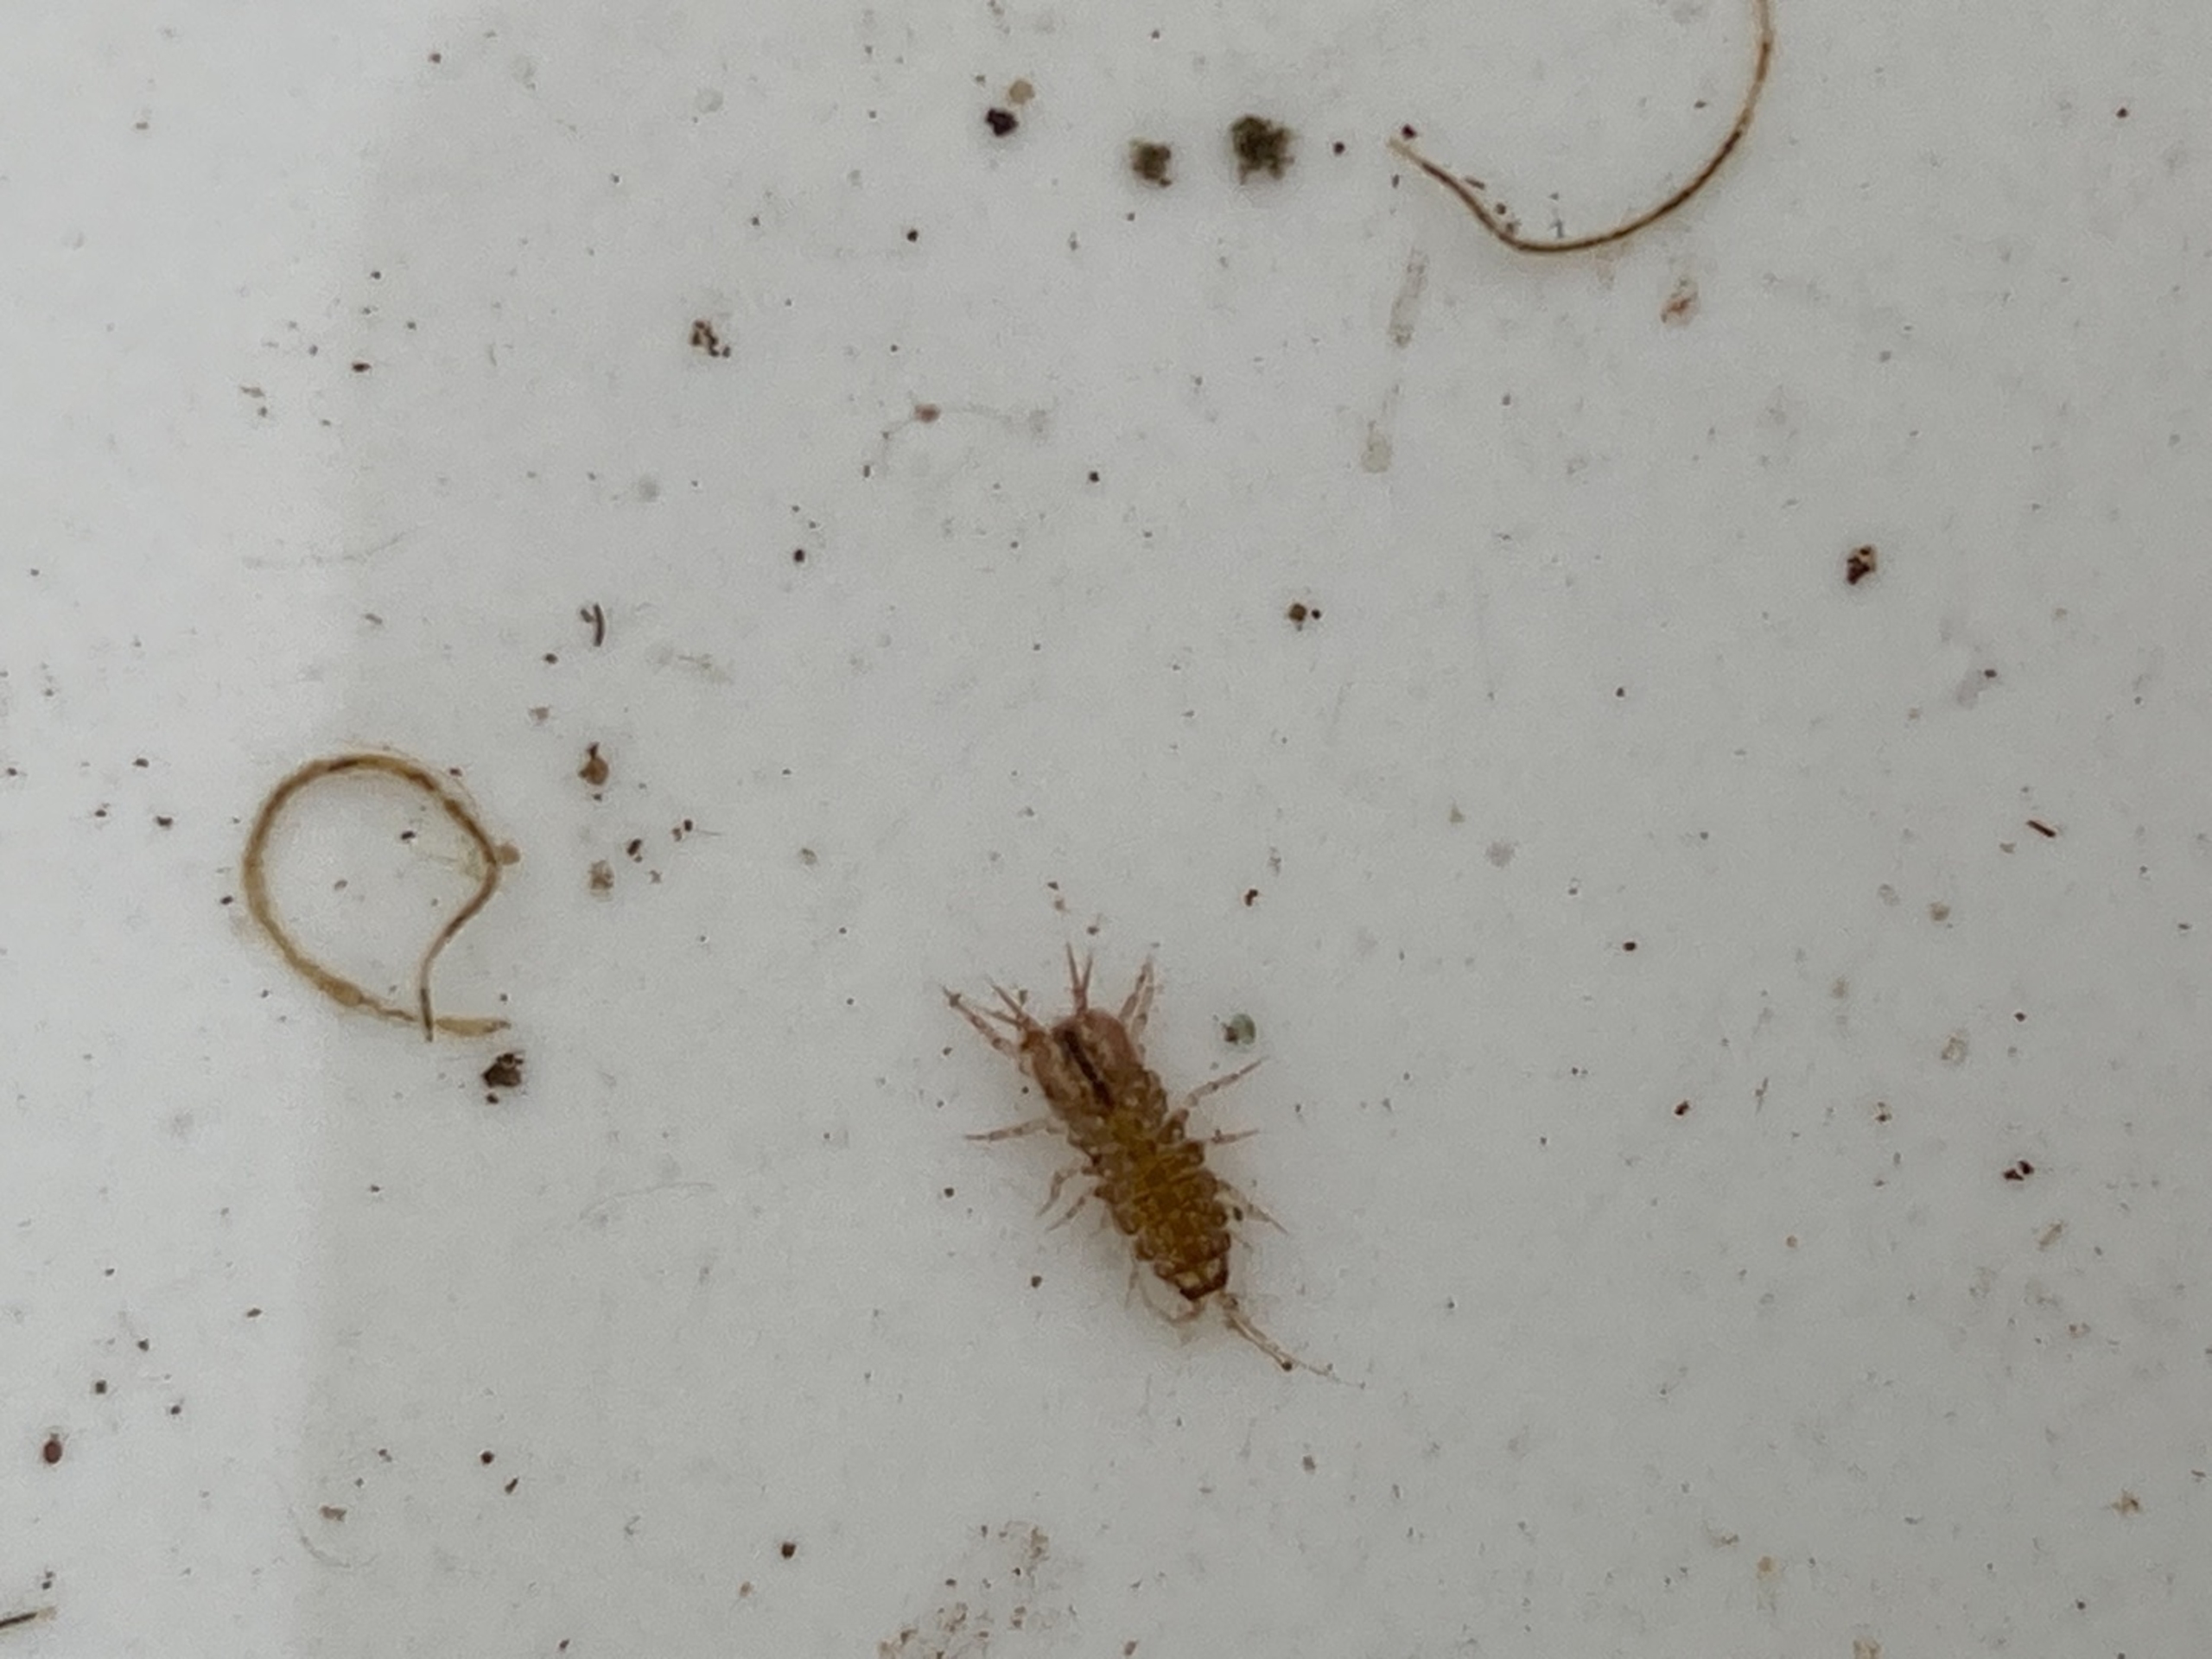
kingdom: Animalia
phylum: Arthropoda
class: Malacostraca
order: Isopoda
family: Asellidae
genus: Asellus
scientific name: Asellus aquaticus
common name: Vandbænkebider
